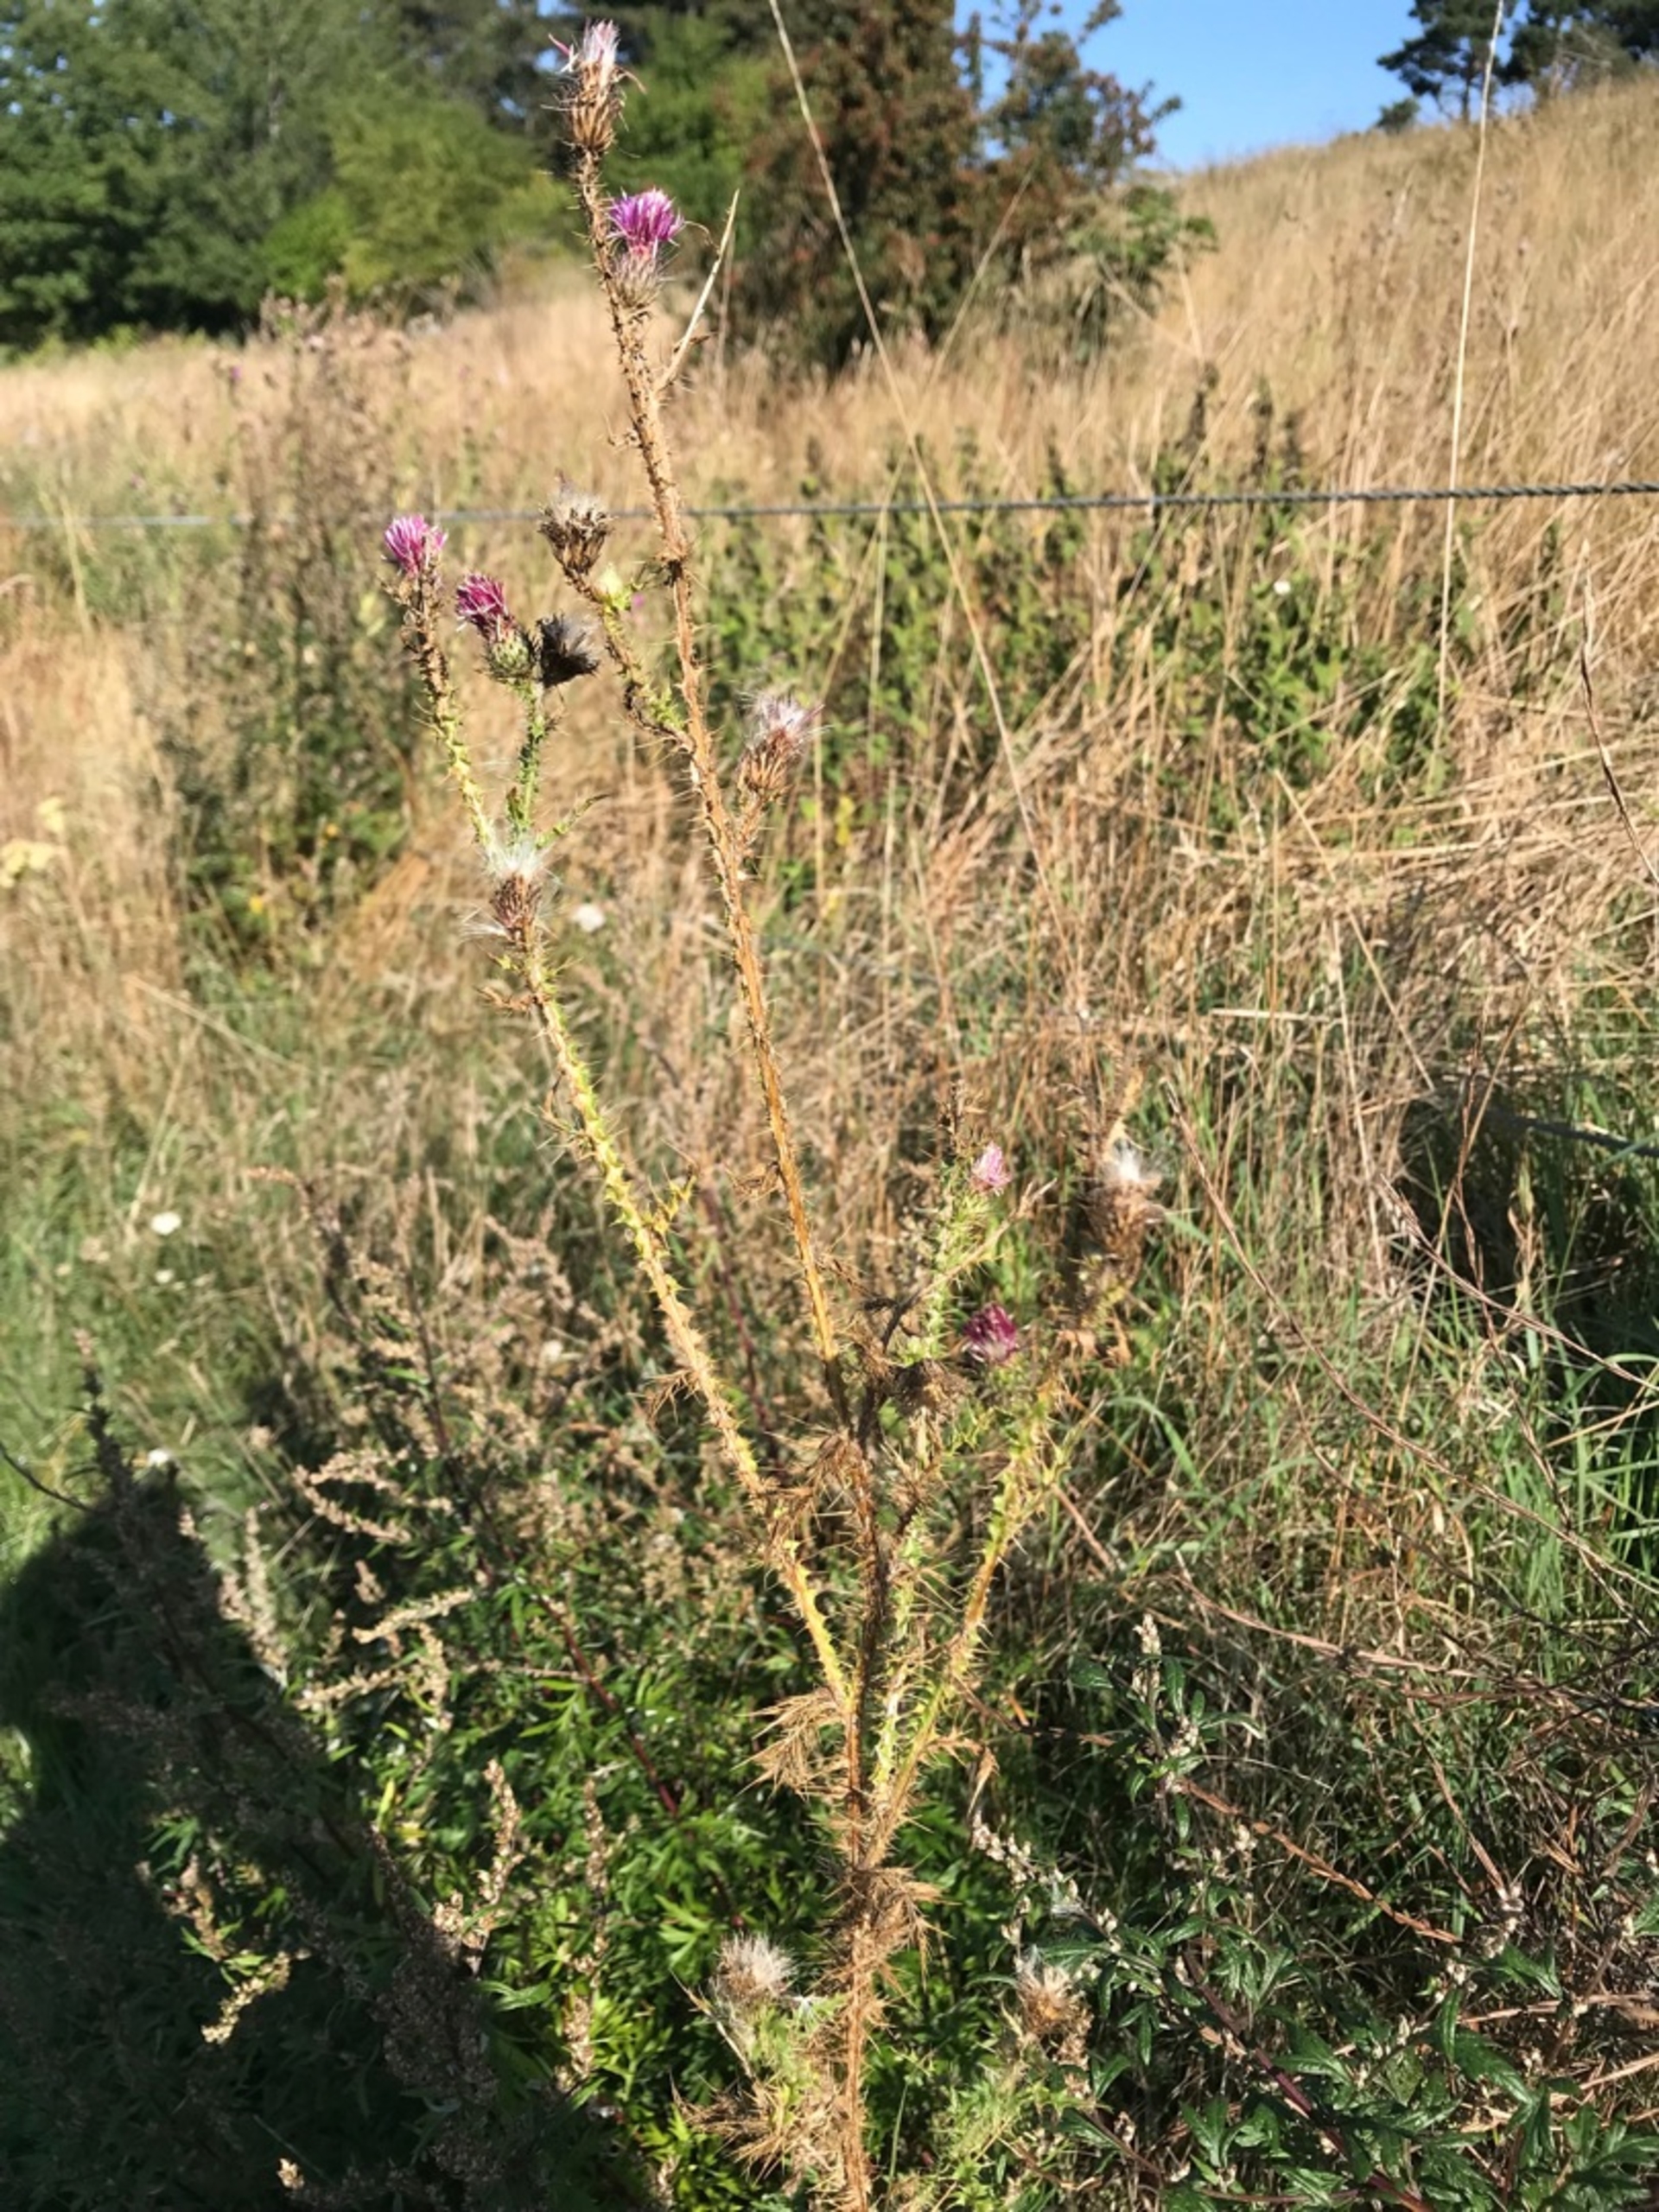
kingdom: Plantae
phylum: Tracheophyta
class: Magnoliopsida
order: Asterales
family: Asteraceae
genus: Carduus
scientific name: Carduus acanthoides
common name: Tornet tidsel
